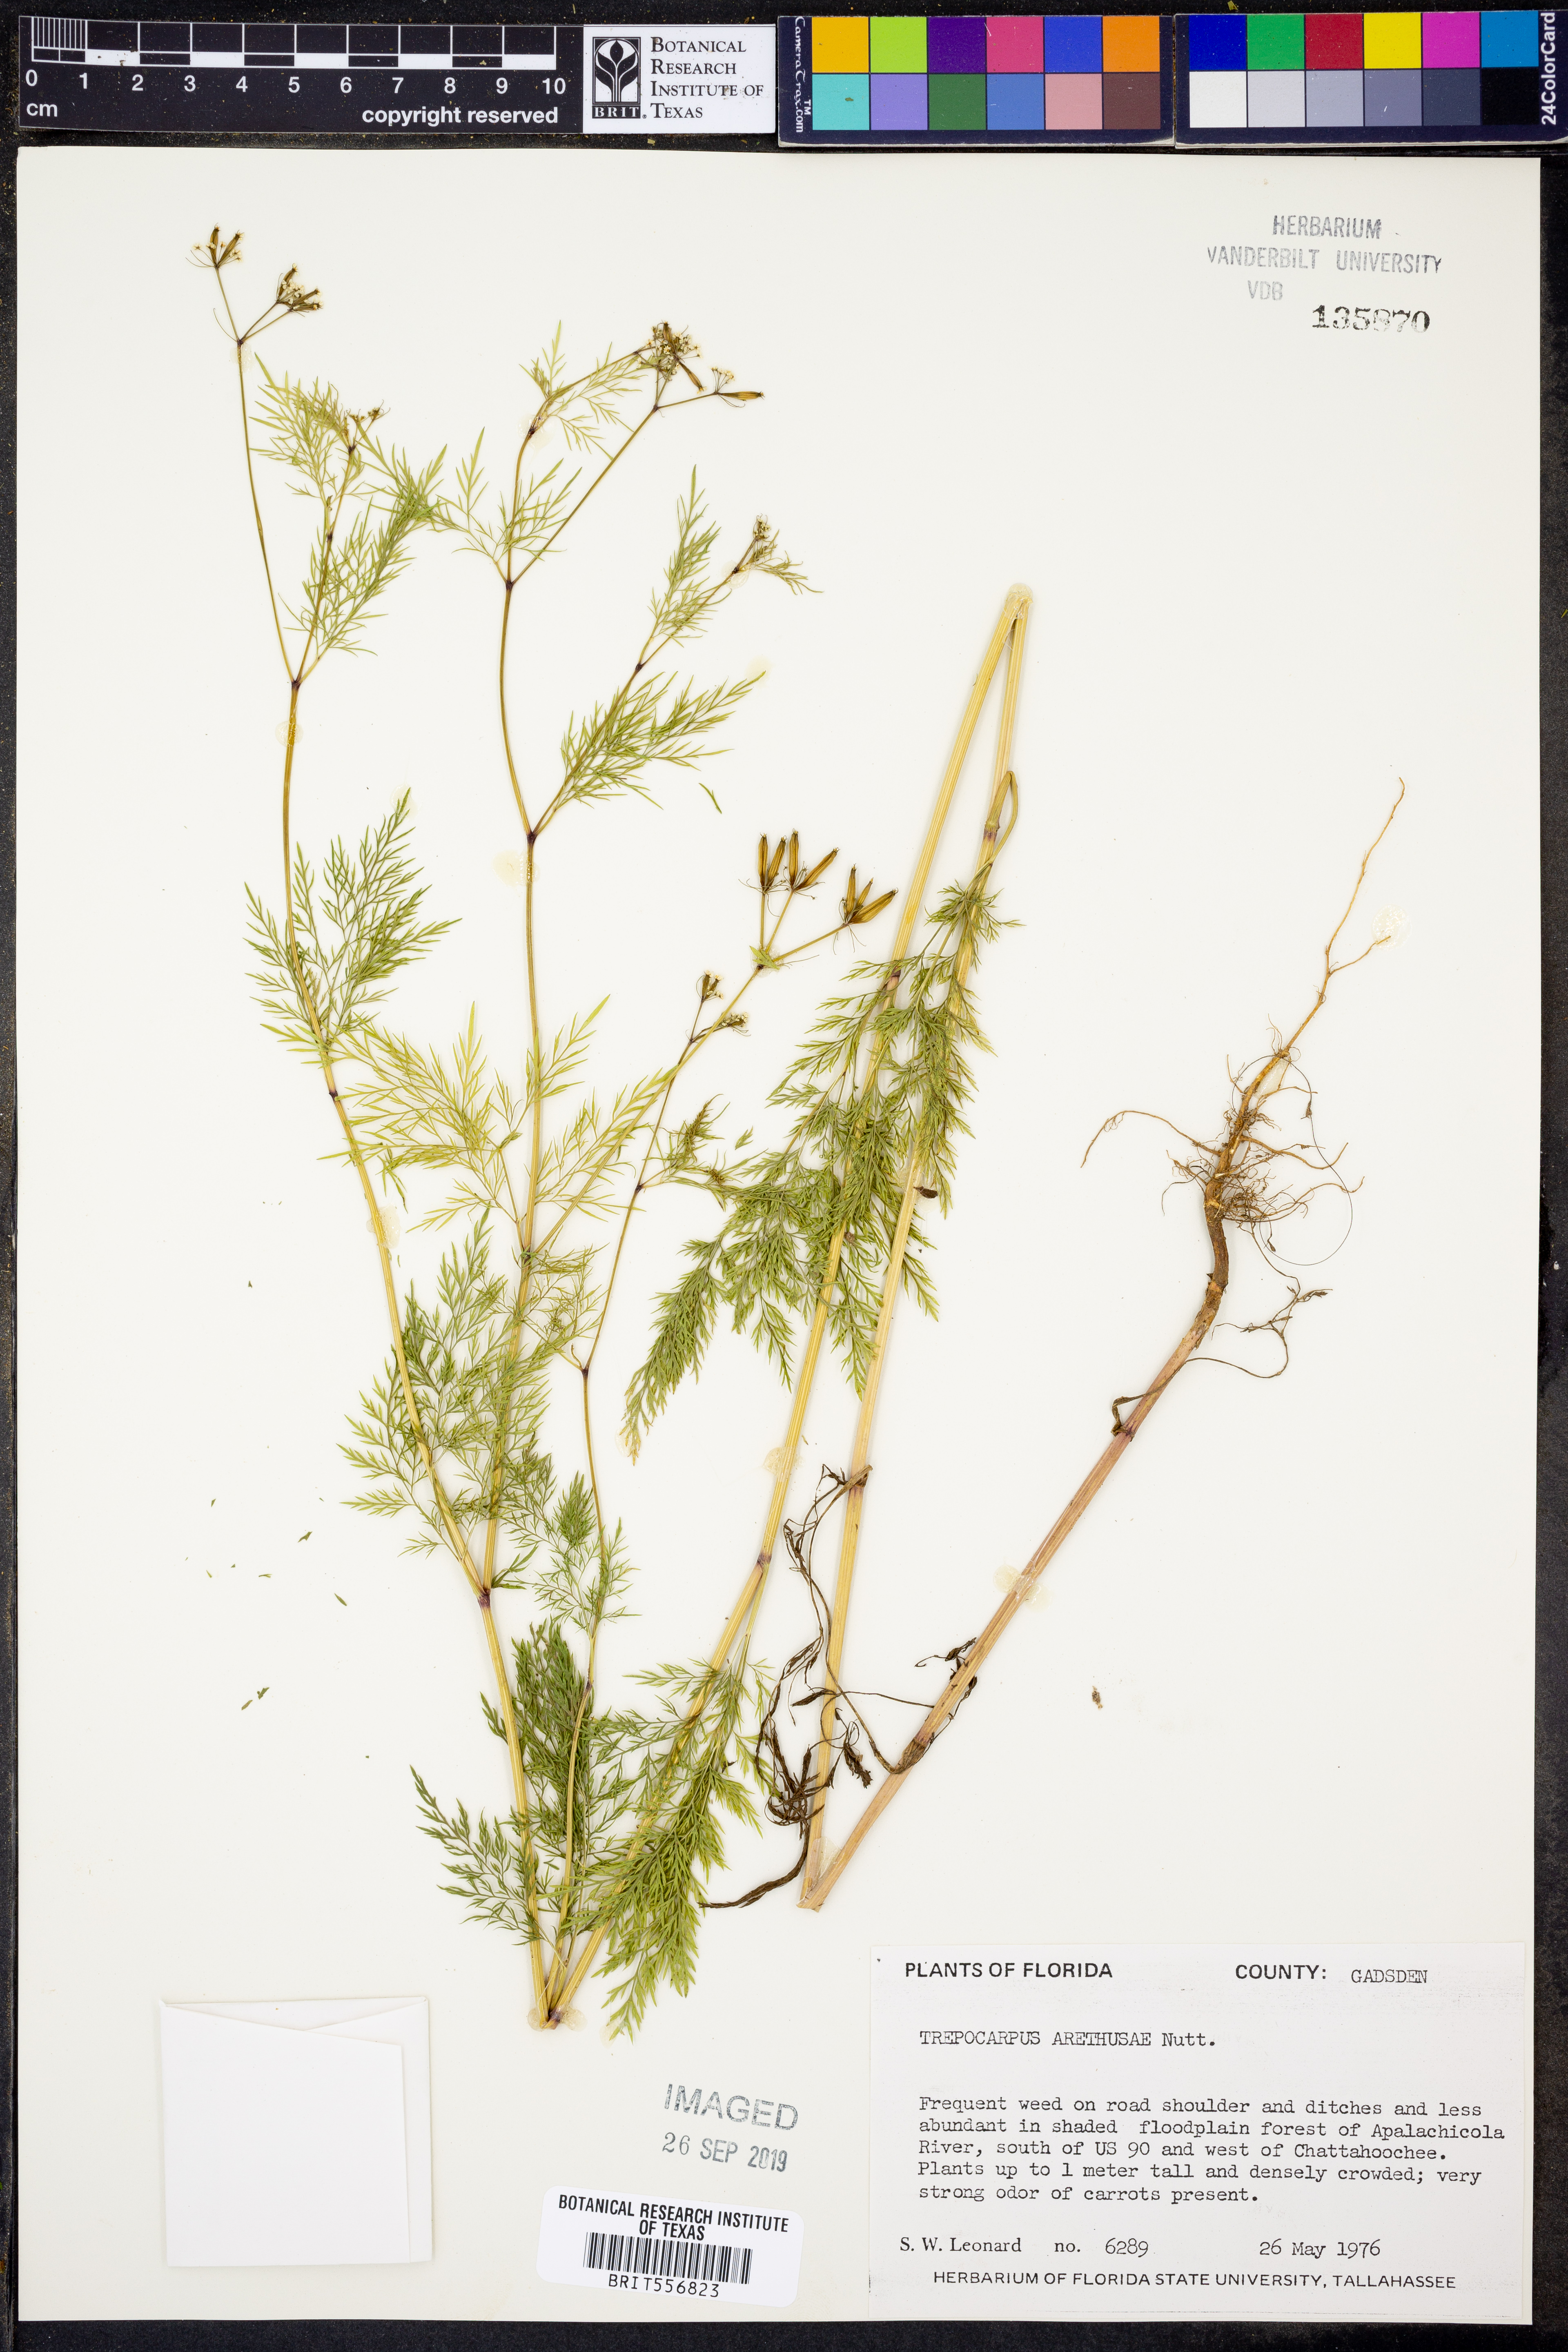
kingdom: Plantae
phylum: Tracheophyta
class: Magnoliopsida
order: Apiales
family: Apiaceae
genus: Trepocarpus
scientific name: Trepocarpus aethusae
